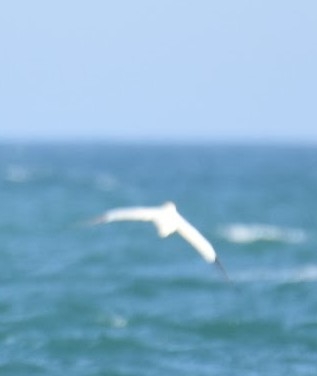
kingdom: Animalia
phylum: Chordata
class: Aves
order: Suliformes
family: Sulidae
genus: Morus
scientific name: Morus bassanus
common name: Sule
